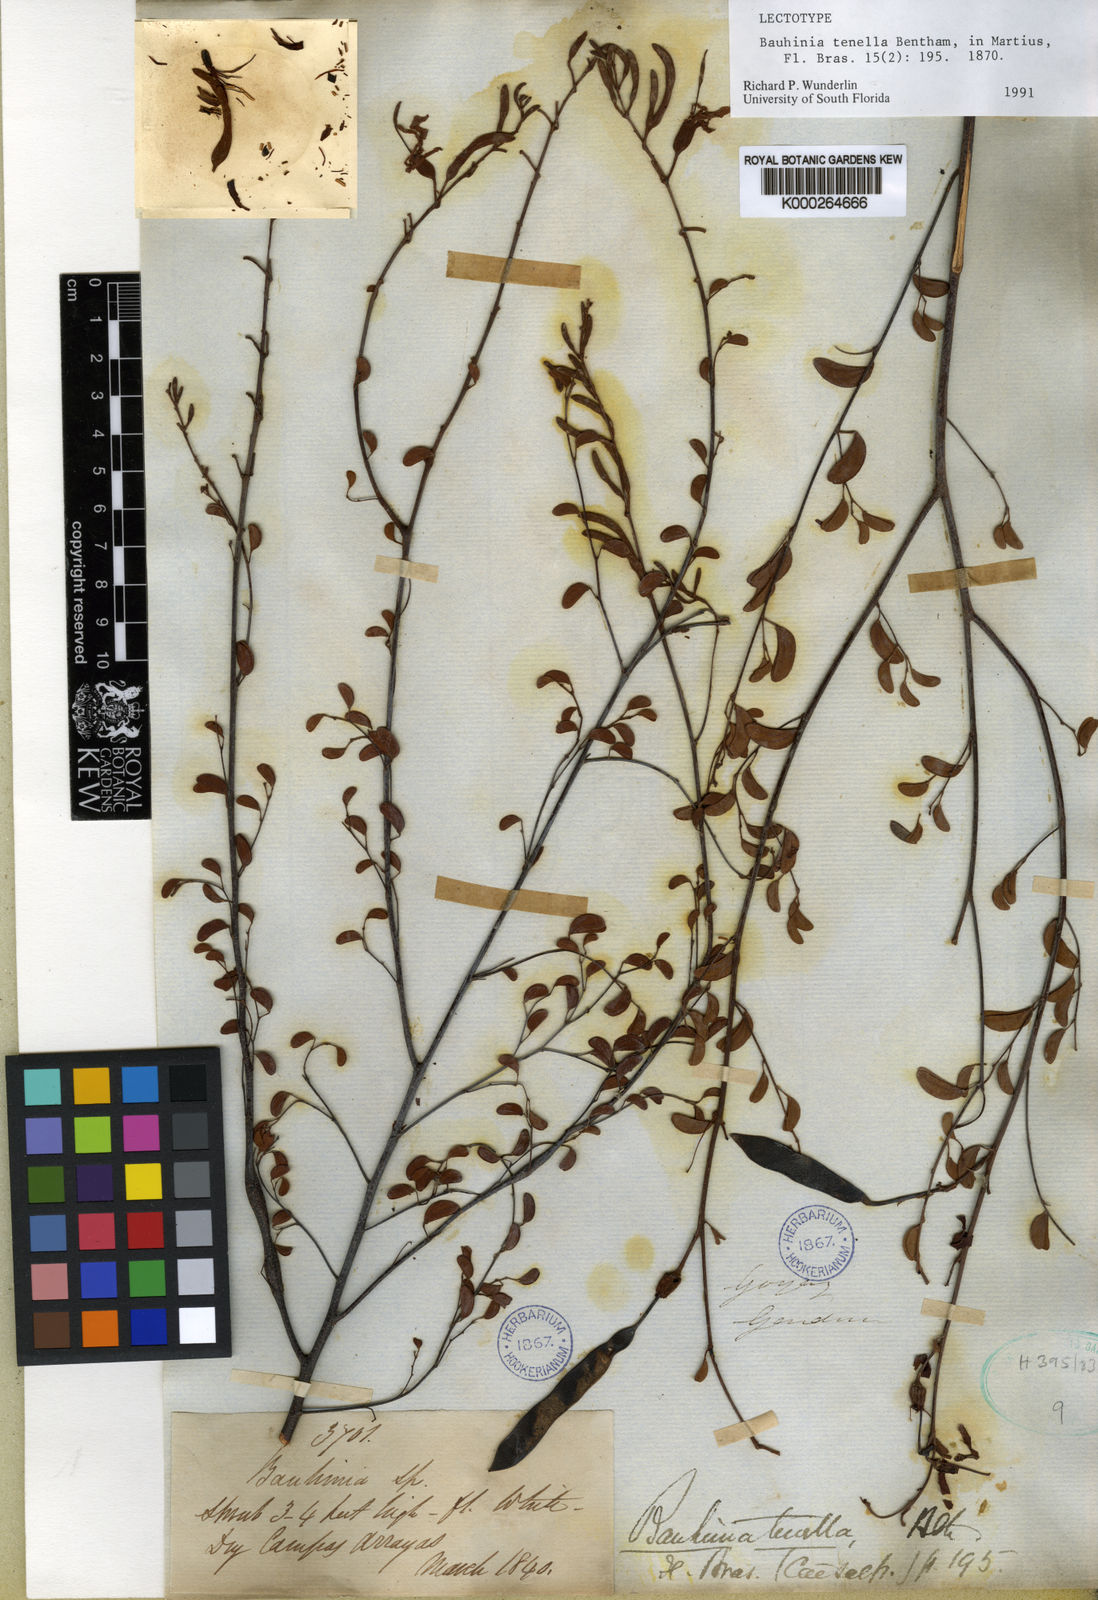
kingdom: Plantae
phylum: Tracheophyta
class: Magnoliopsida
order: Fabales
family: Fabaceae
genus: Bauhinia
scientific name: Bauhinia tenella
